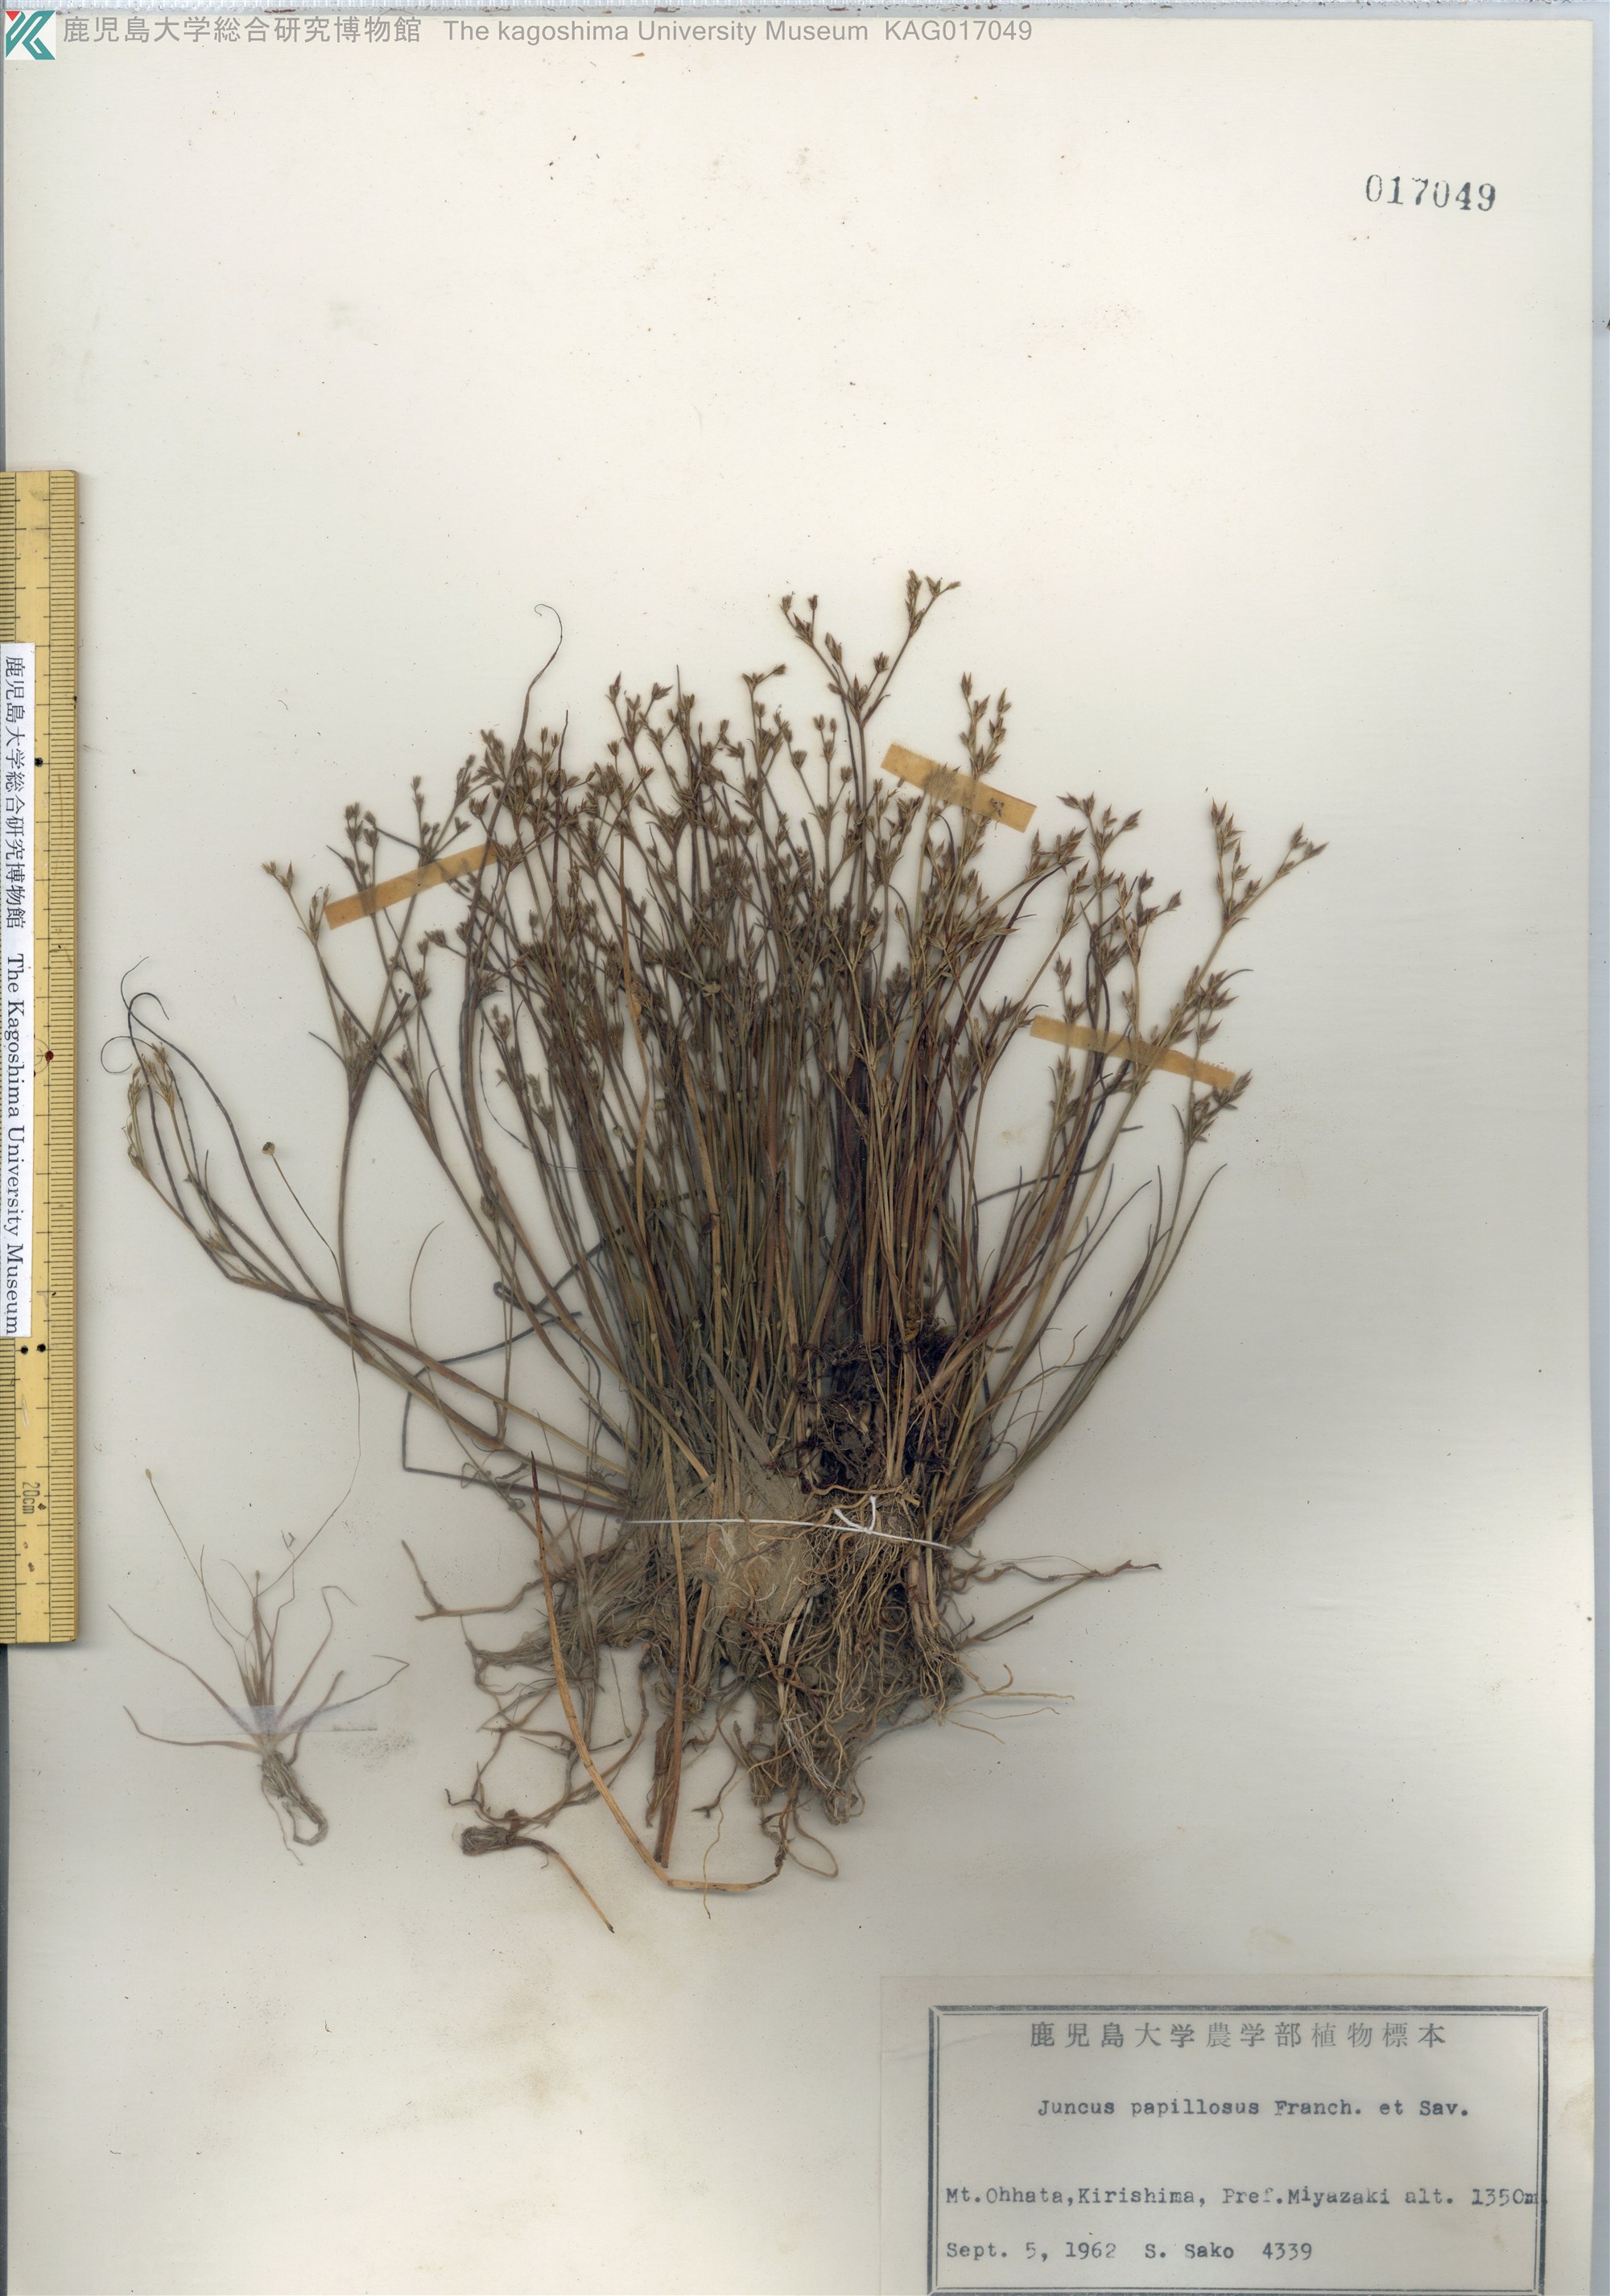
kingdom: Plantae
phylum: Tracheophyta
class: Liliopsida
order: Poales
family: Juncaceae
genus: Juncus
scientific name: Juncus papillosus
